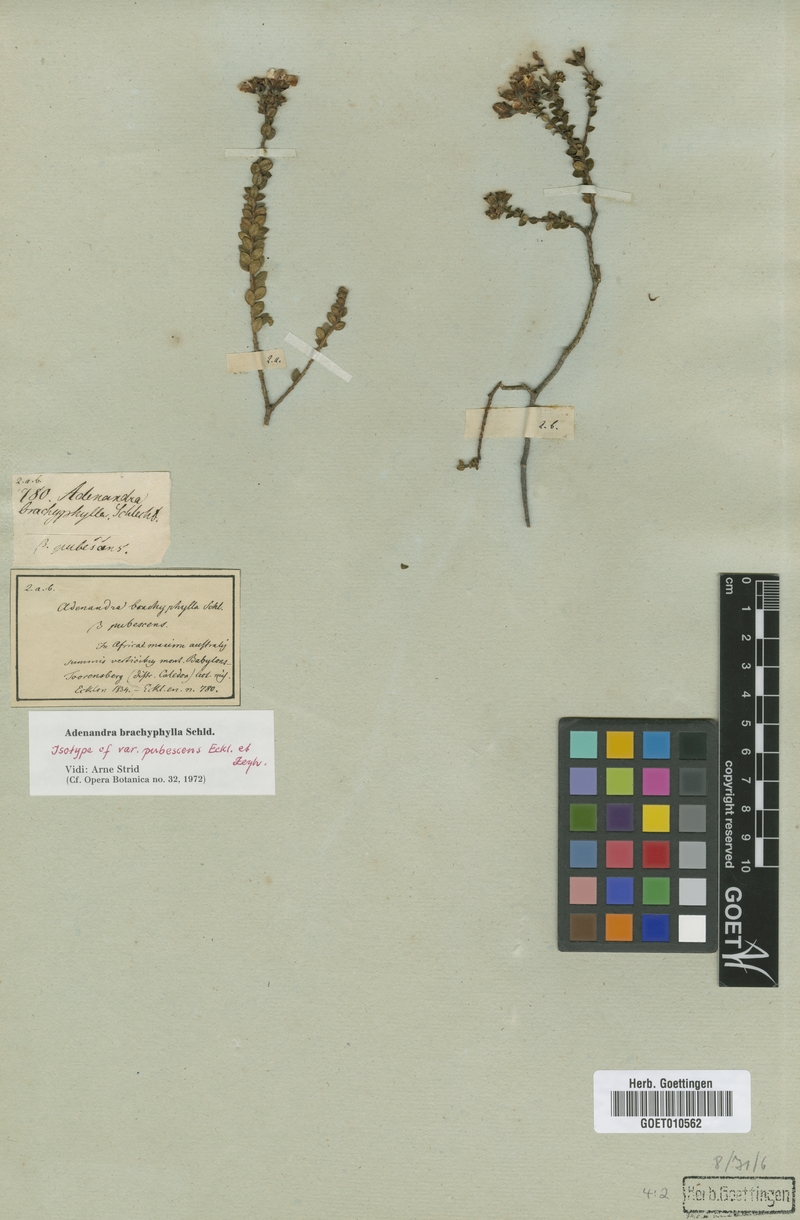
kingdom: Plantae
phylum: Tracheophyta
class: Magnoliopsida
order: Sapindales
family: Rutaceae
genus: Adenandra
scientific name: Adenandra brachyphylla
